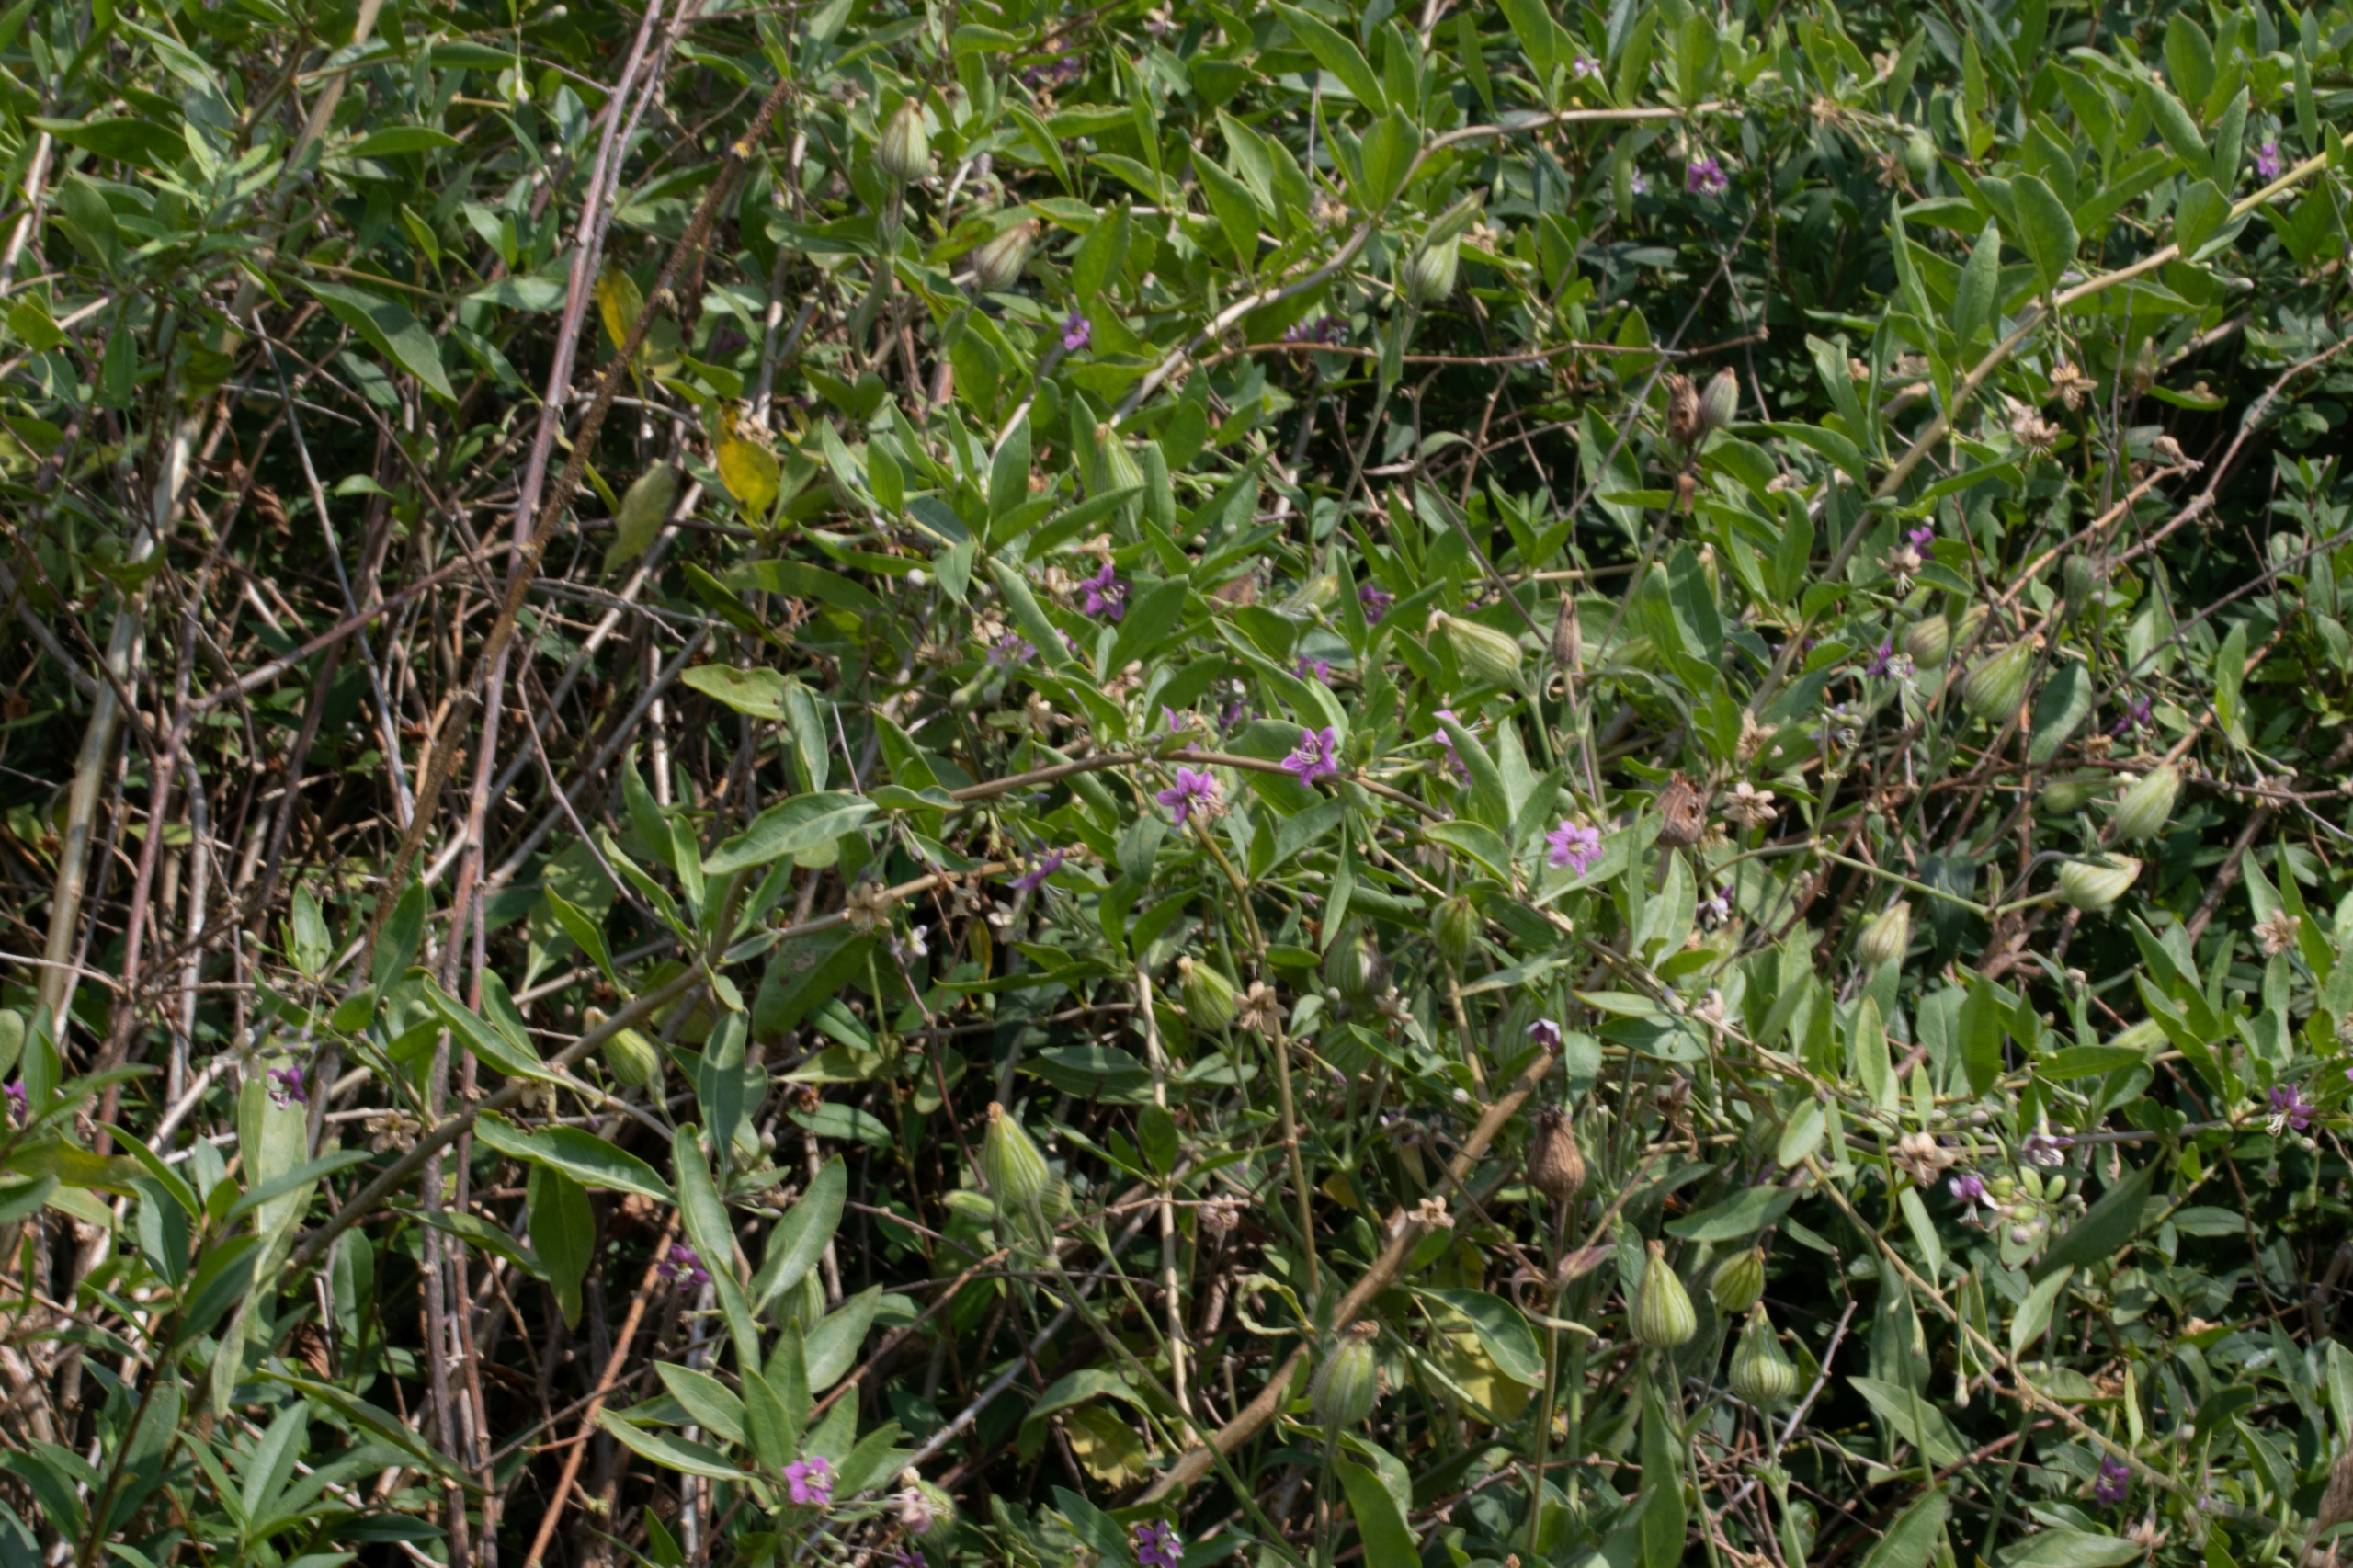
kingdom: Plantae
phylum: Tracheophyta
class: Magnoliopsida
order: Solanales
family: Solanaceae
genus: Lycium
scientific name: Lycium barbarum
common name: Bukketorn
